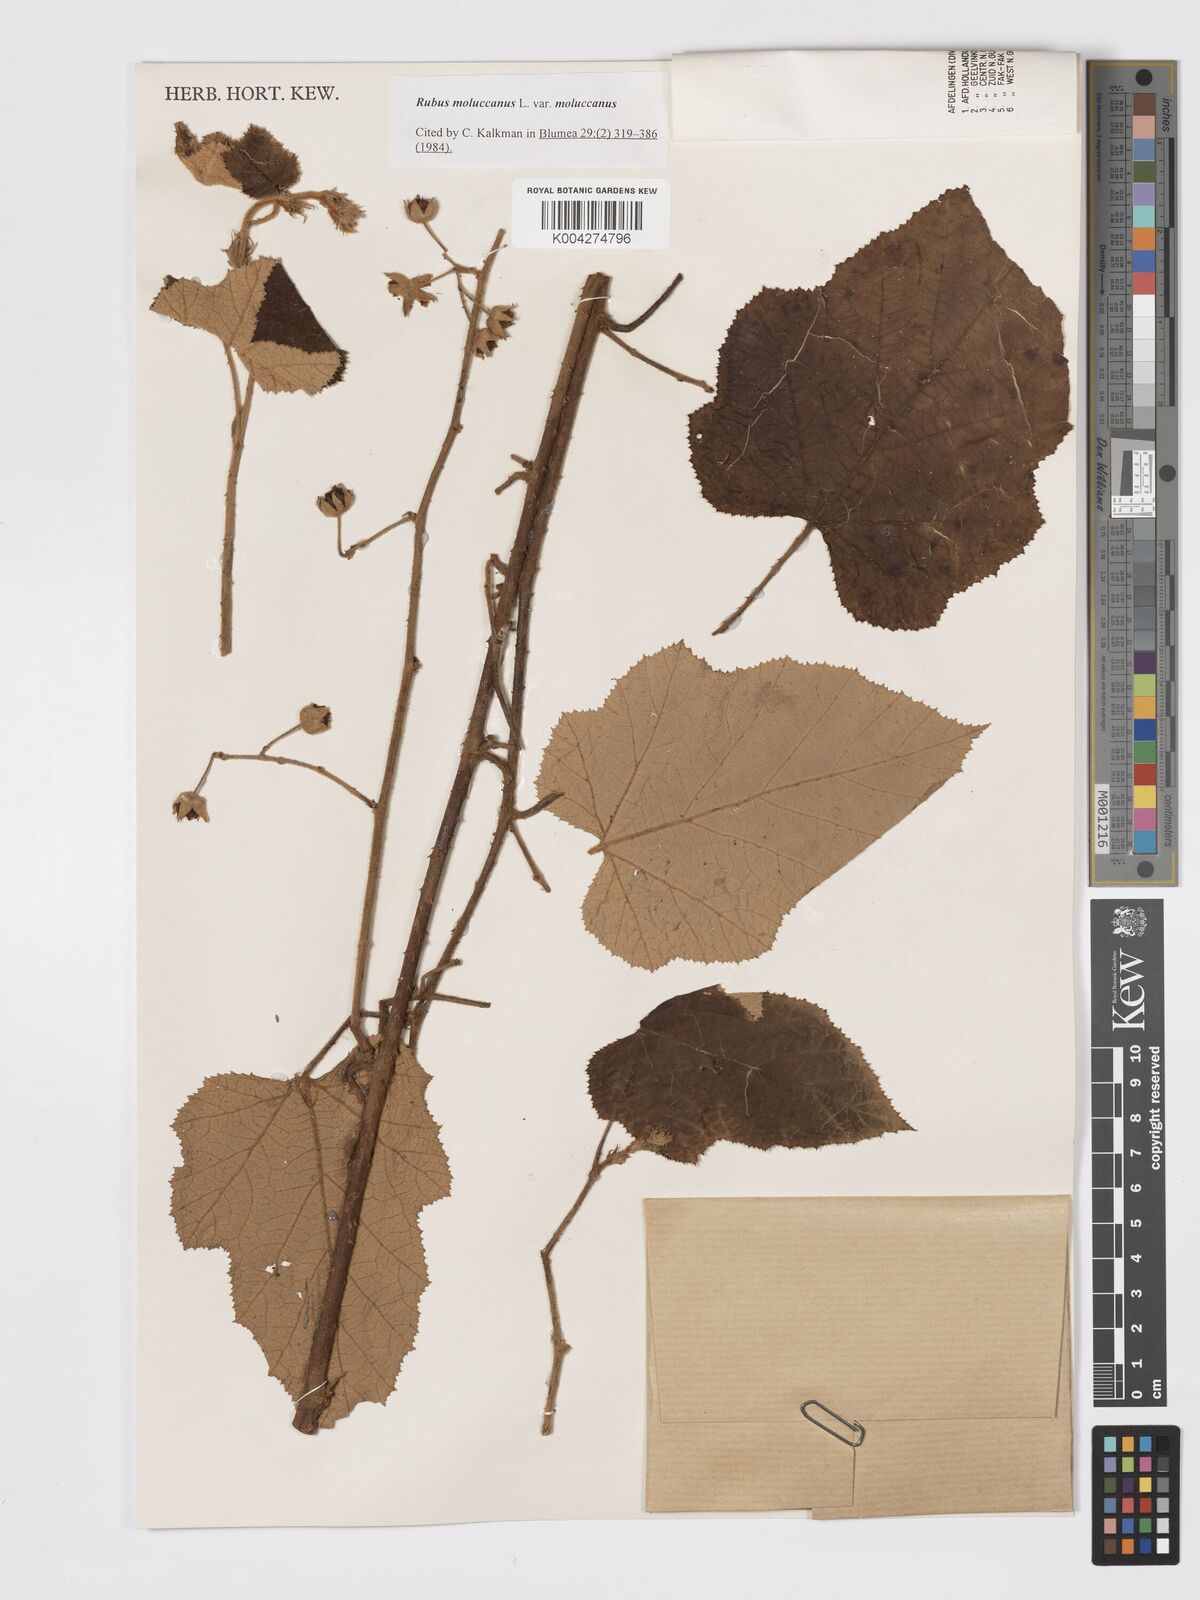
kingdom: Plantae
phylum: Tracheophyta
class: Magnoliopsida
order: Rosales
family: Rosaceae
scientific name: Rosaceae
